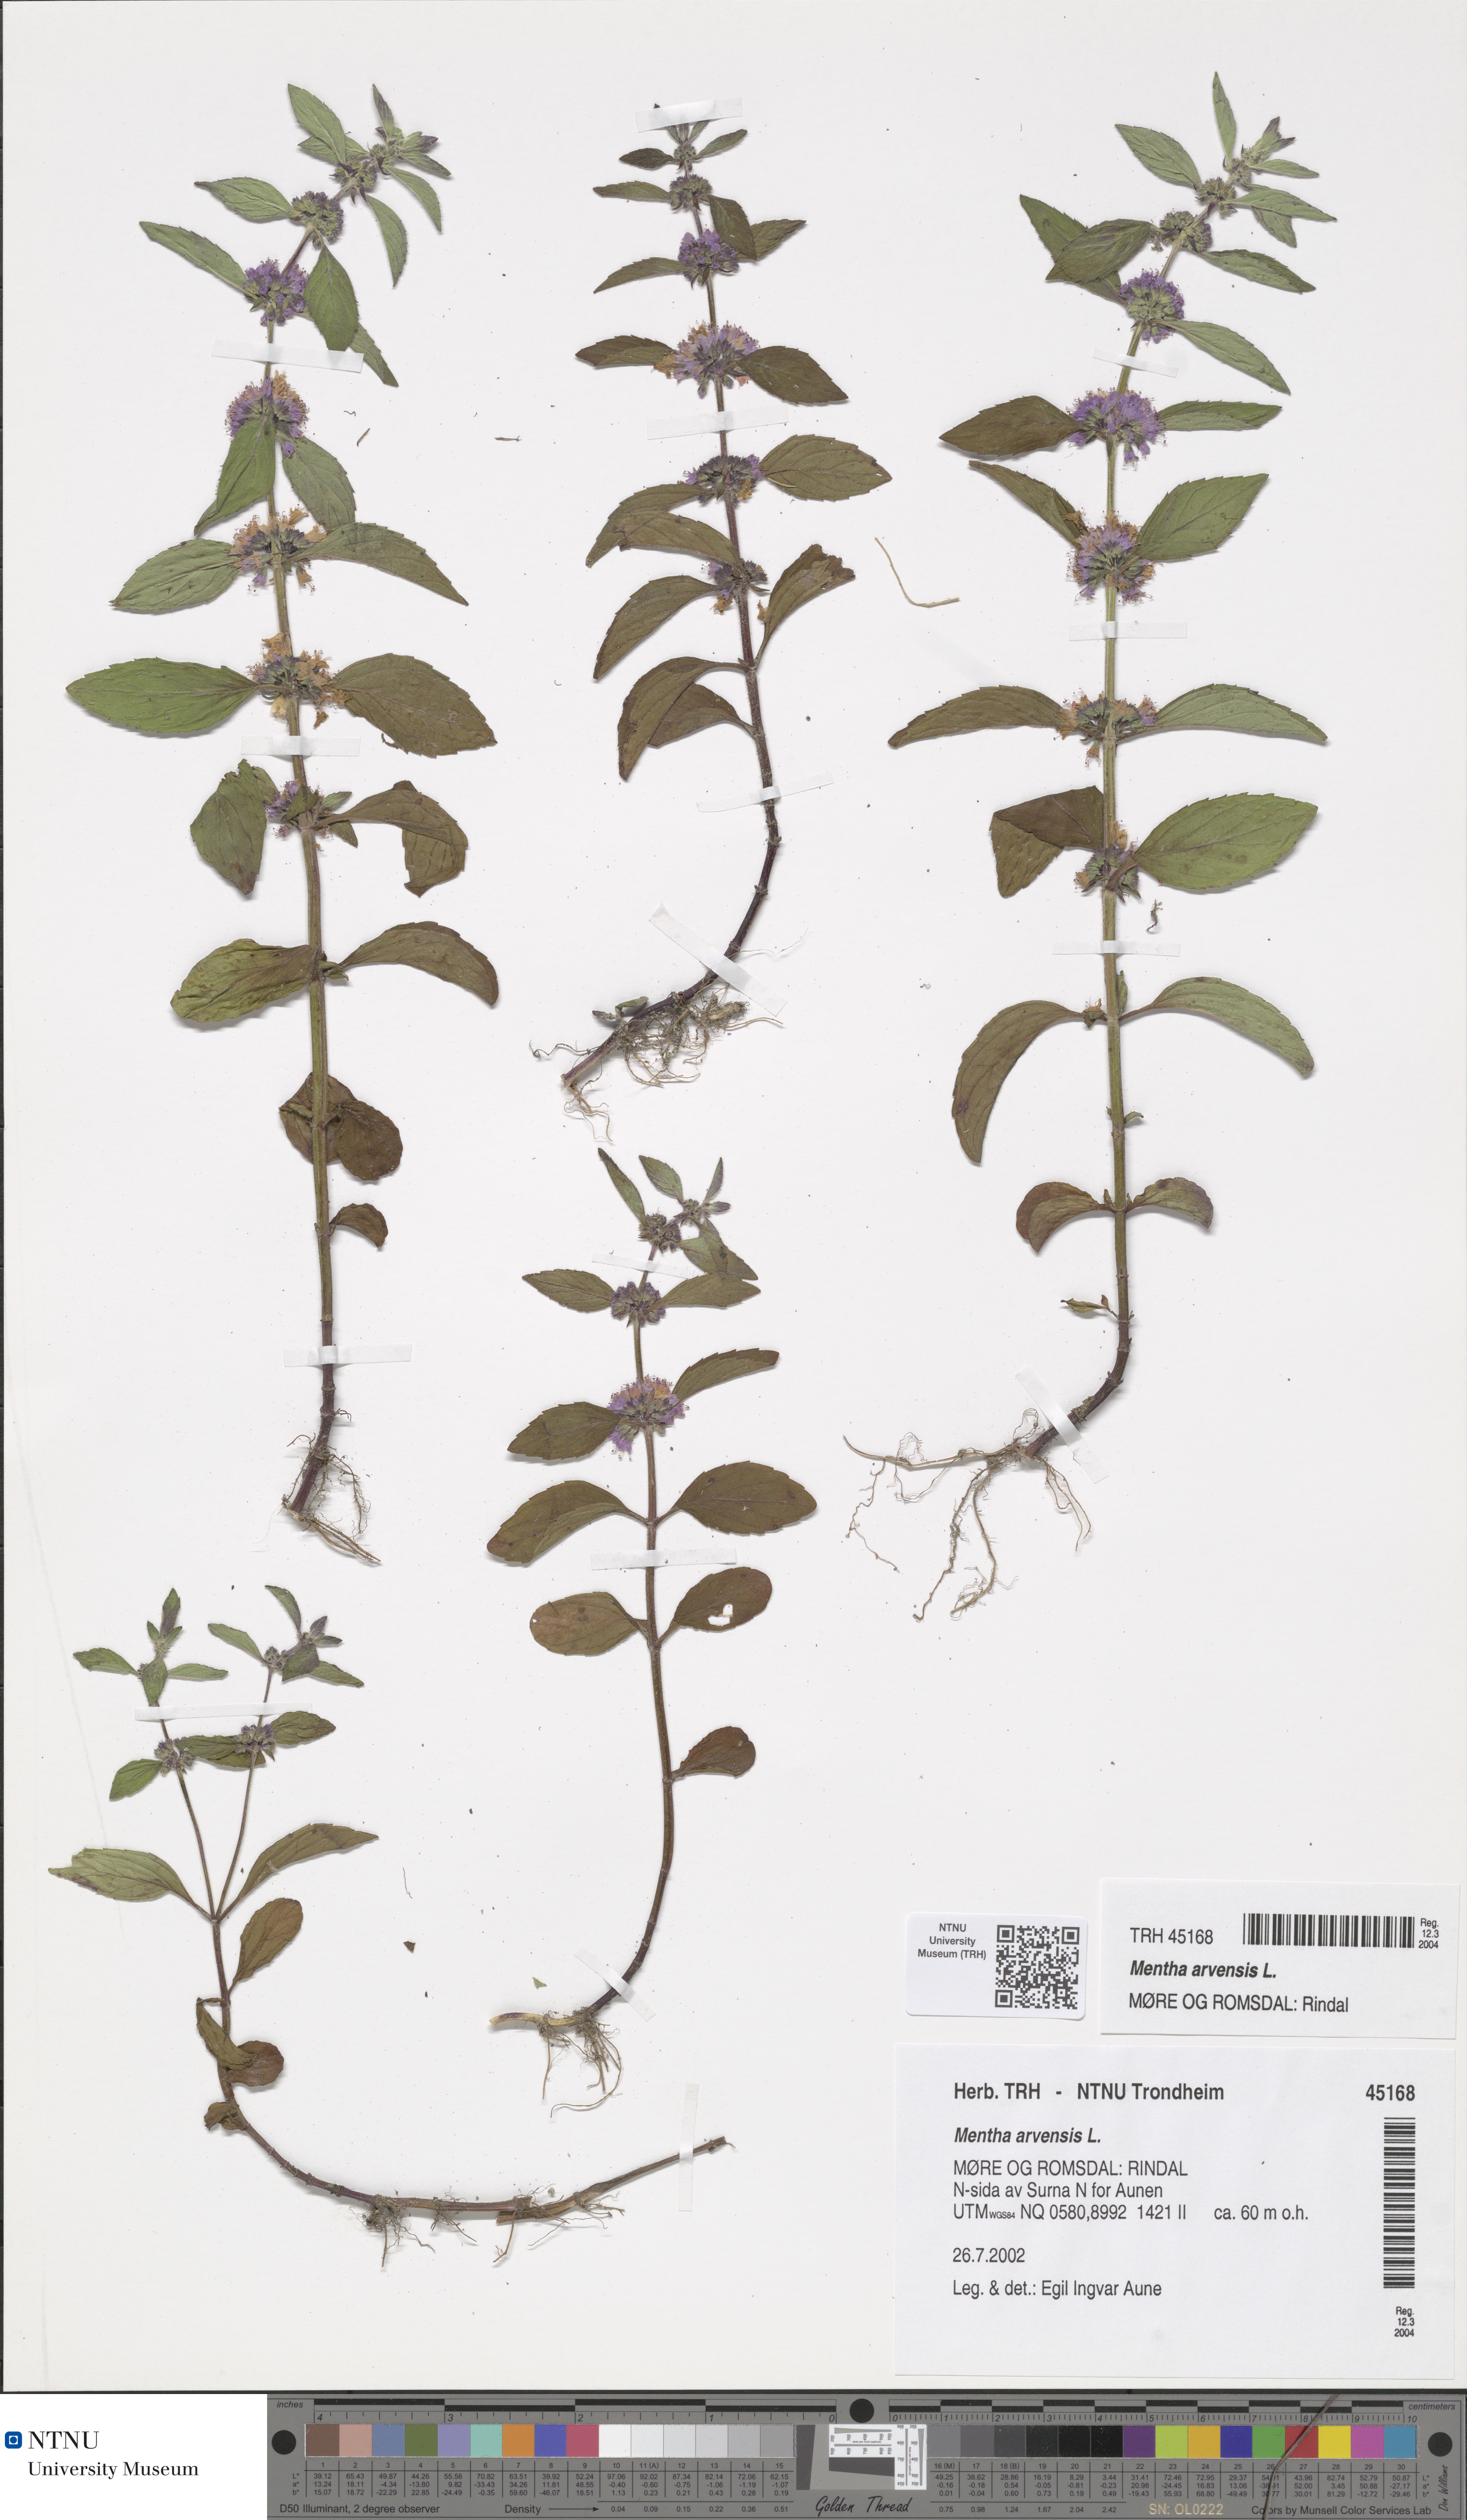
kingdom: Plantae
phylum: Tracheophyta
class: Magnoliopsida
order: Lamiales
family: Lamiaceae
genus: Mentha
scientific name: Mentha arvensis
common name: Corn mint
